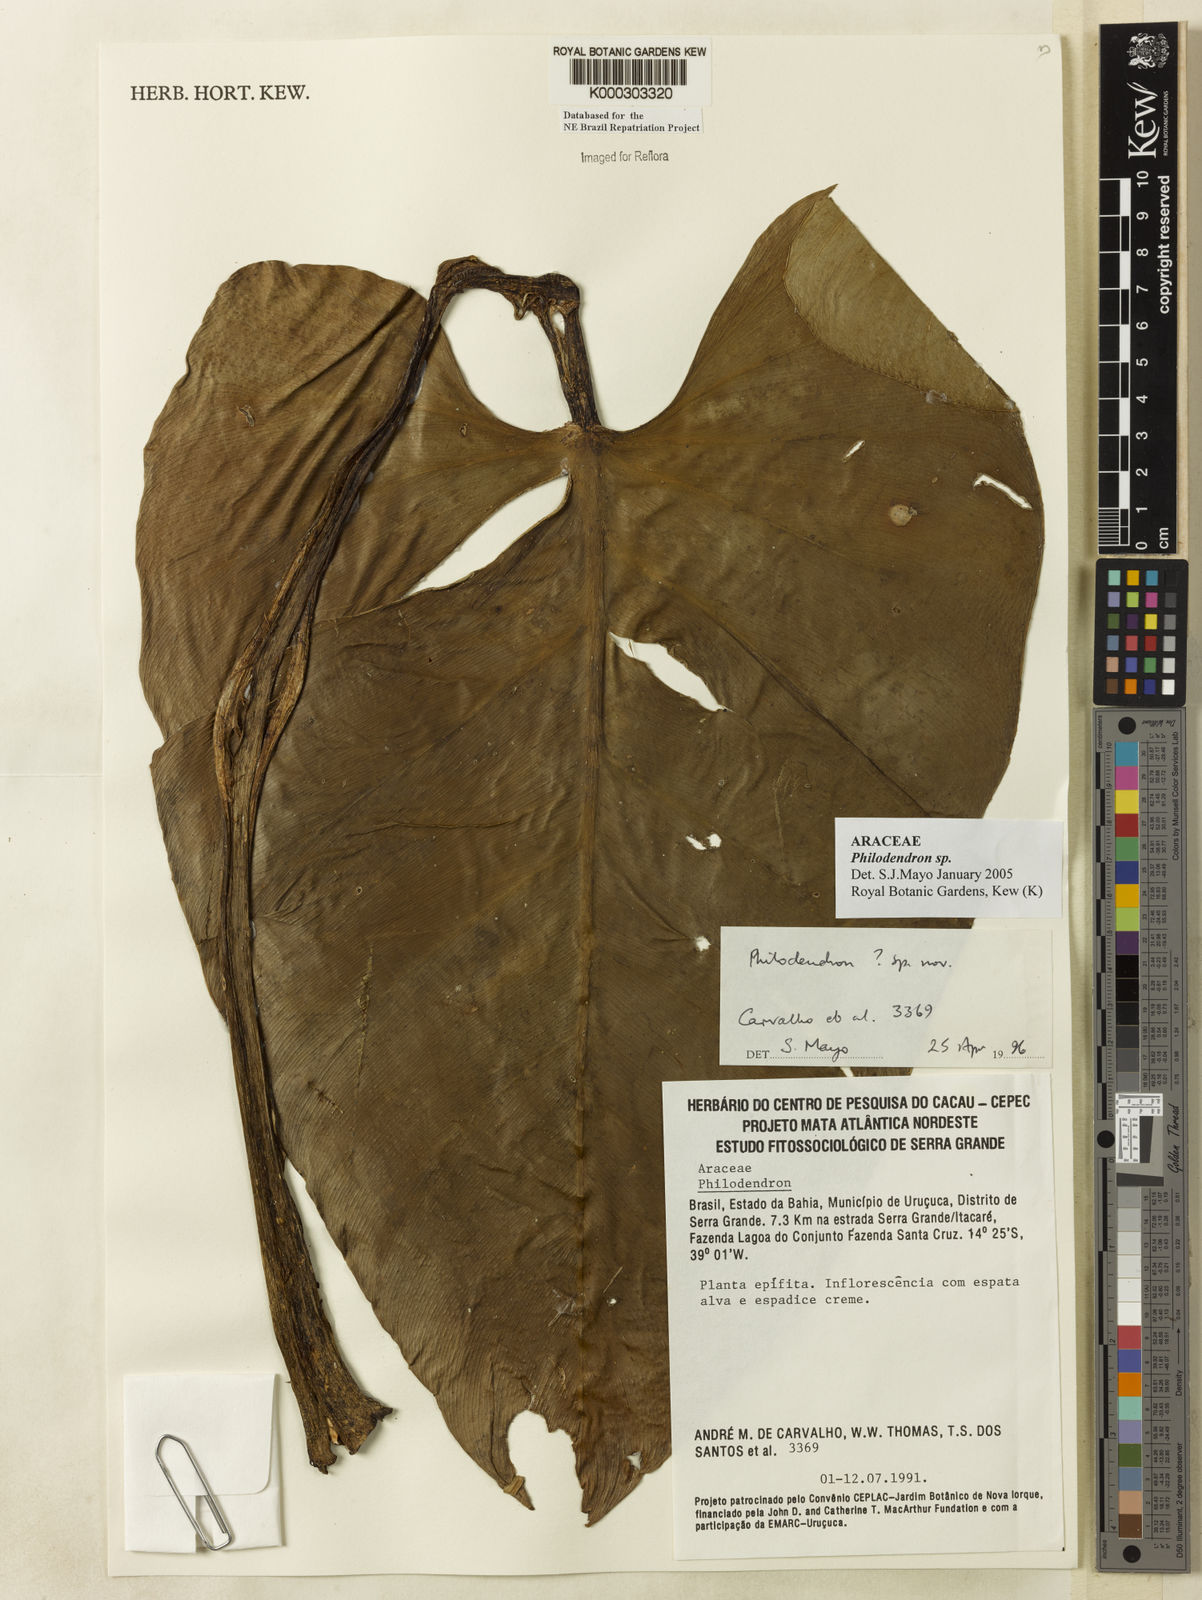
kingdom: Plantae
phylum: Tracheophyta
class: Liliopsida
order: Alismatales
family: Araceae
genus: Philodendron
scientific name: Philodendron
